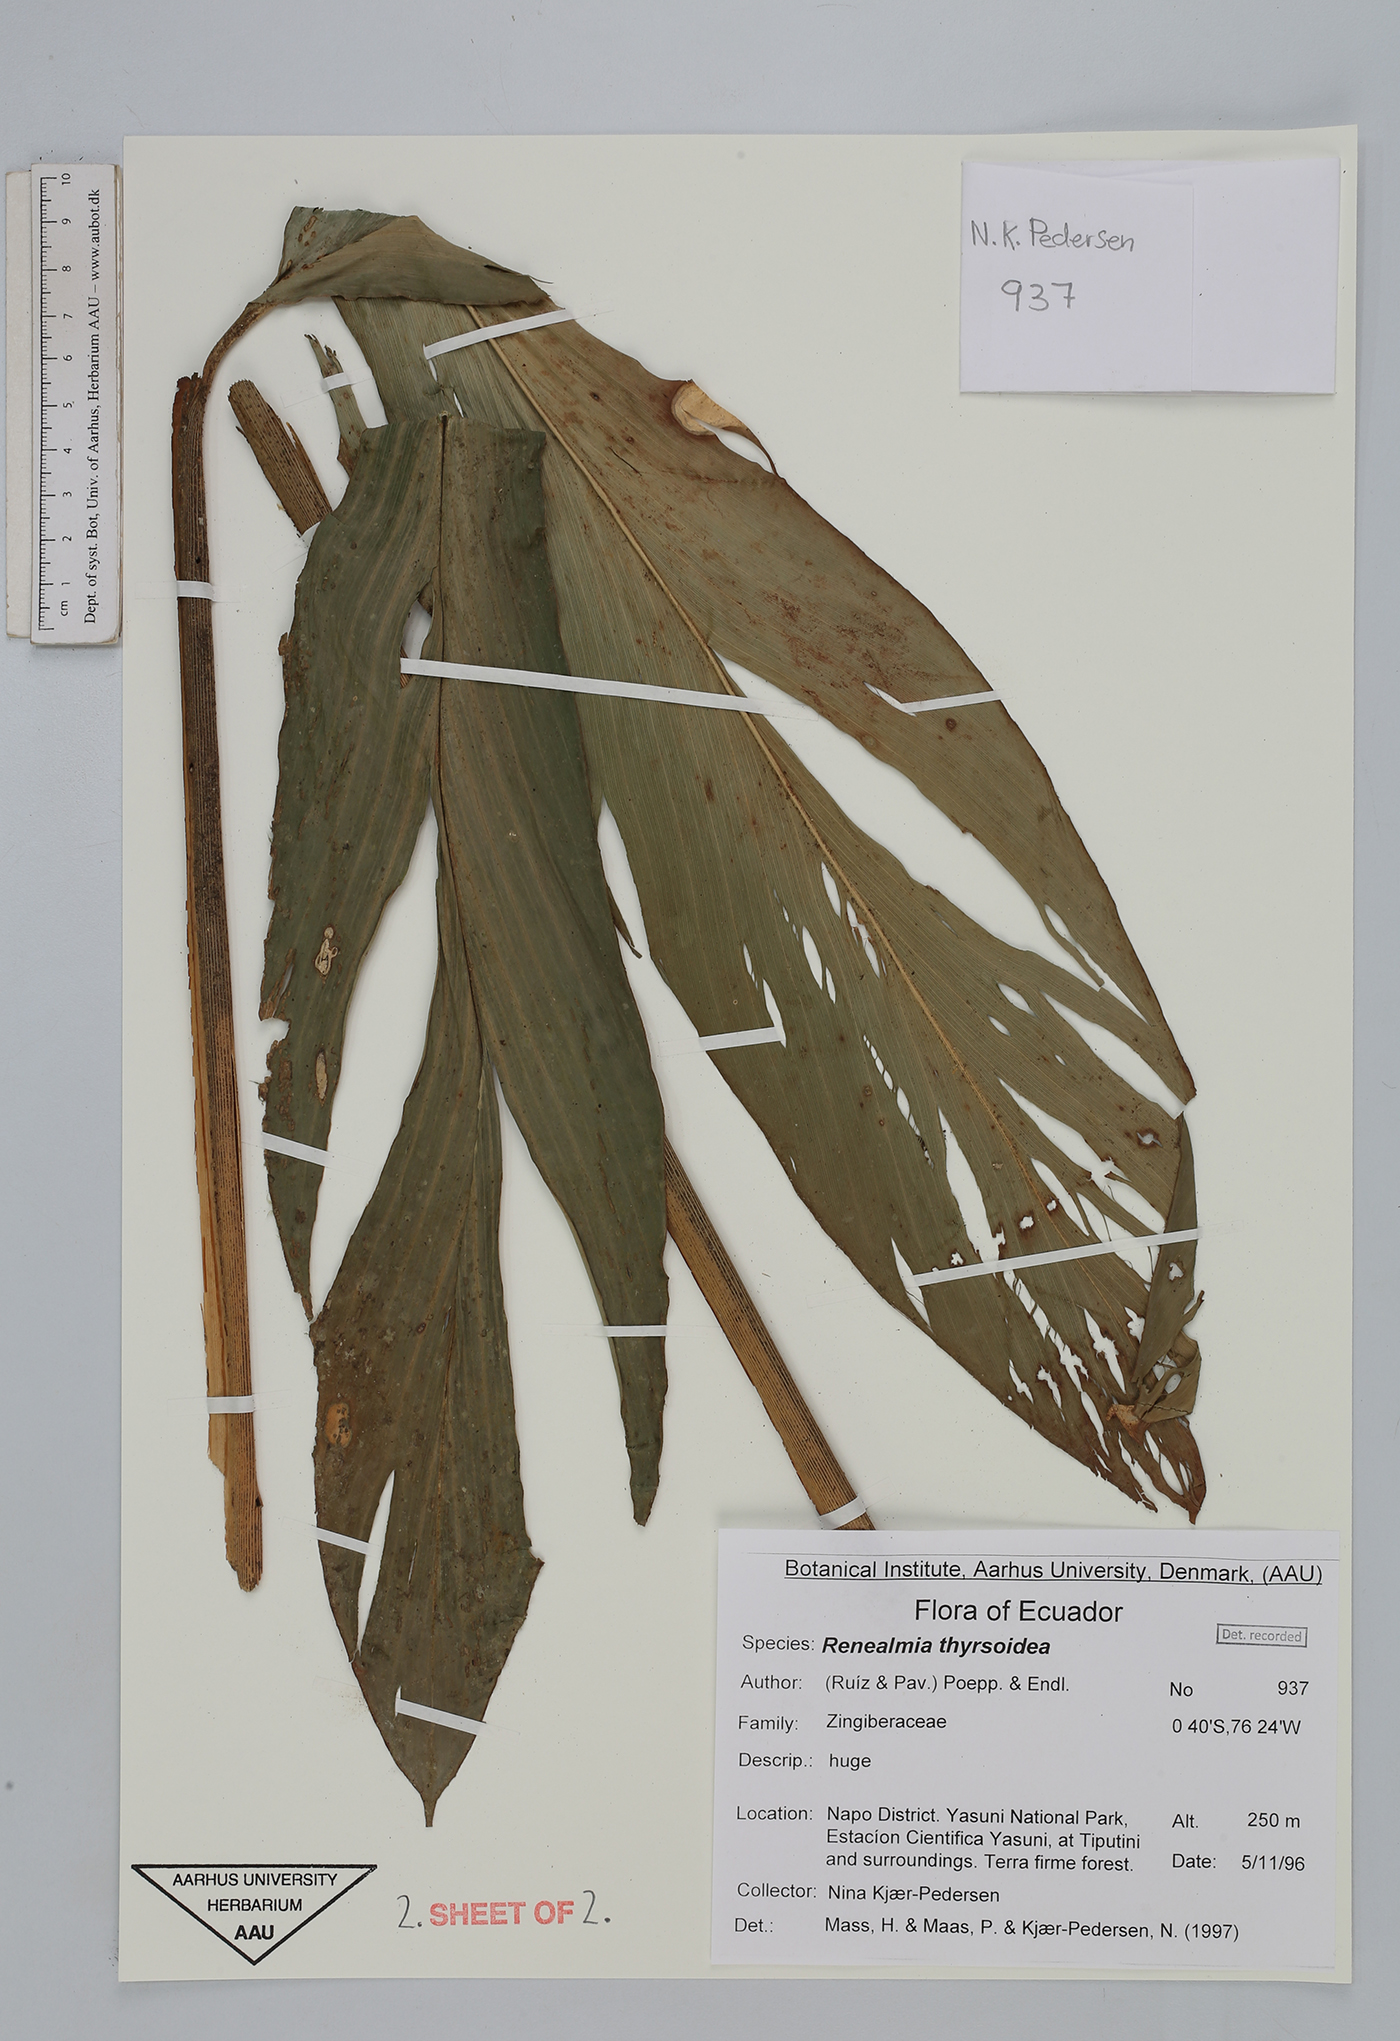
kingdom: Plantae
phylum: Tracheophyta
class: Liliopsida
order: Zingiberales
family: Zingiberaceae
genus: Renealmia
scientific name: Renealmia thyrsoidea
